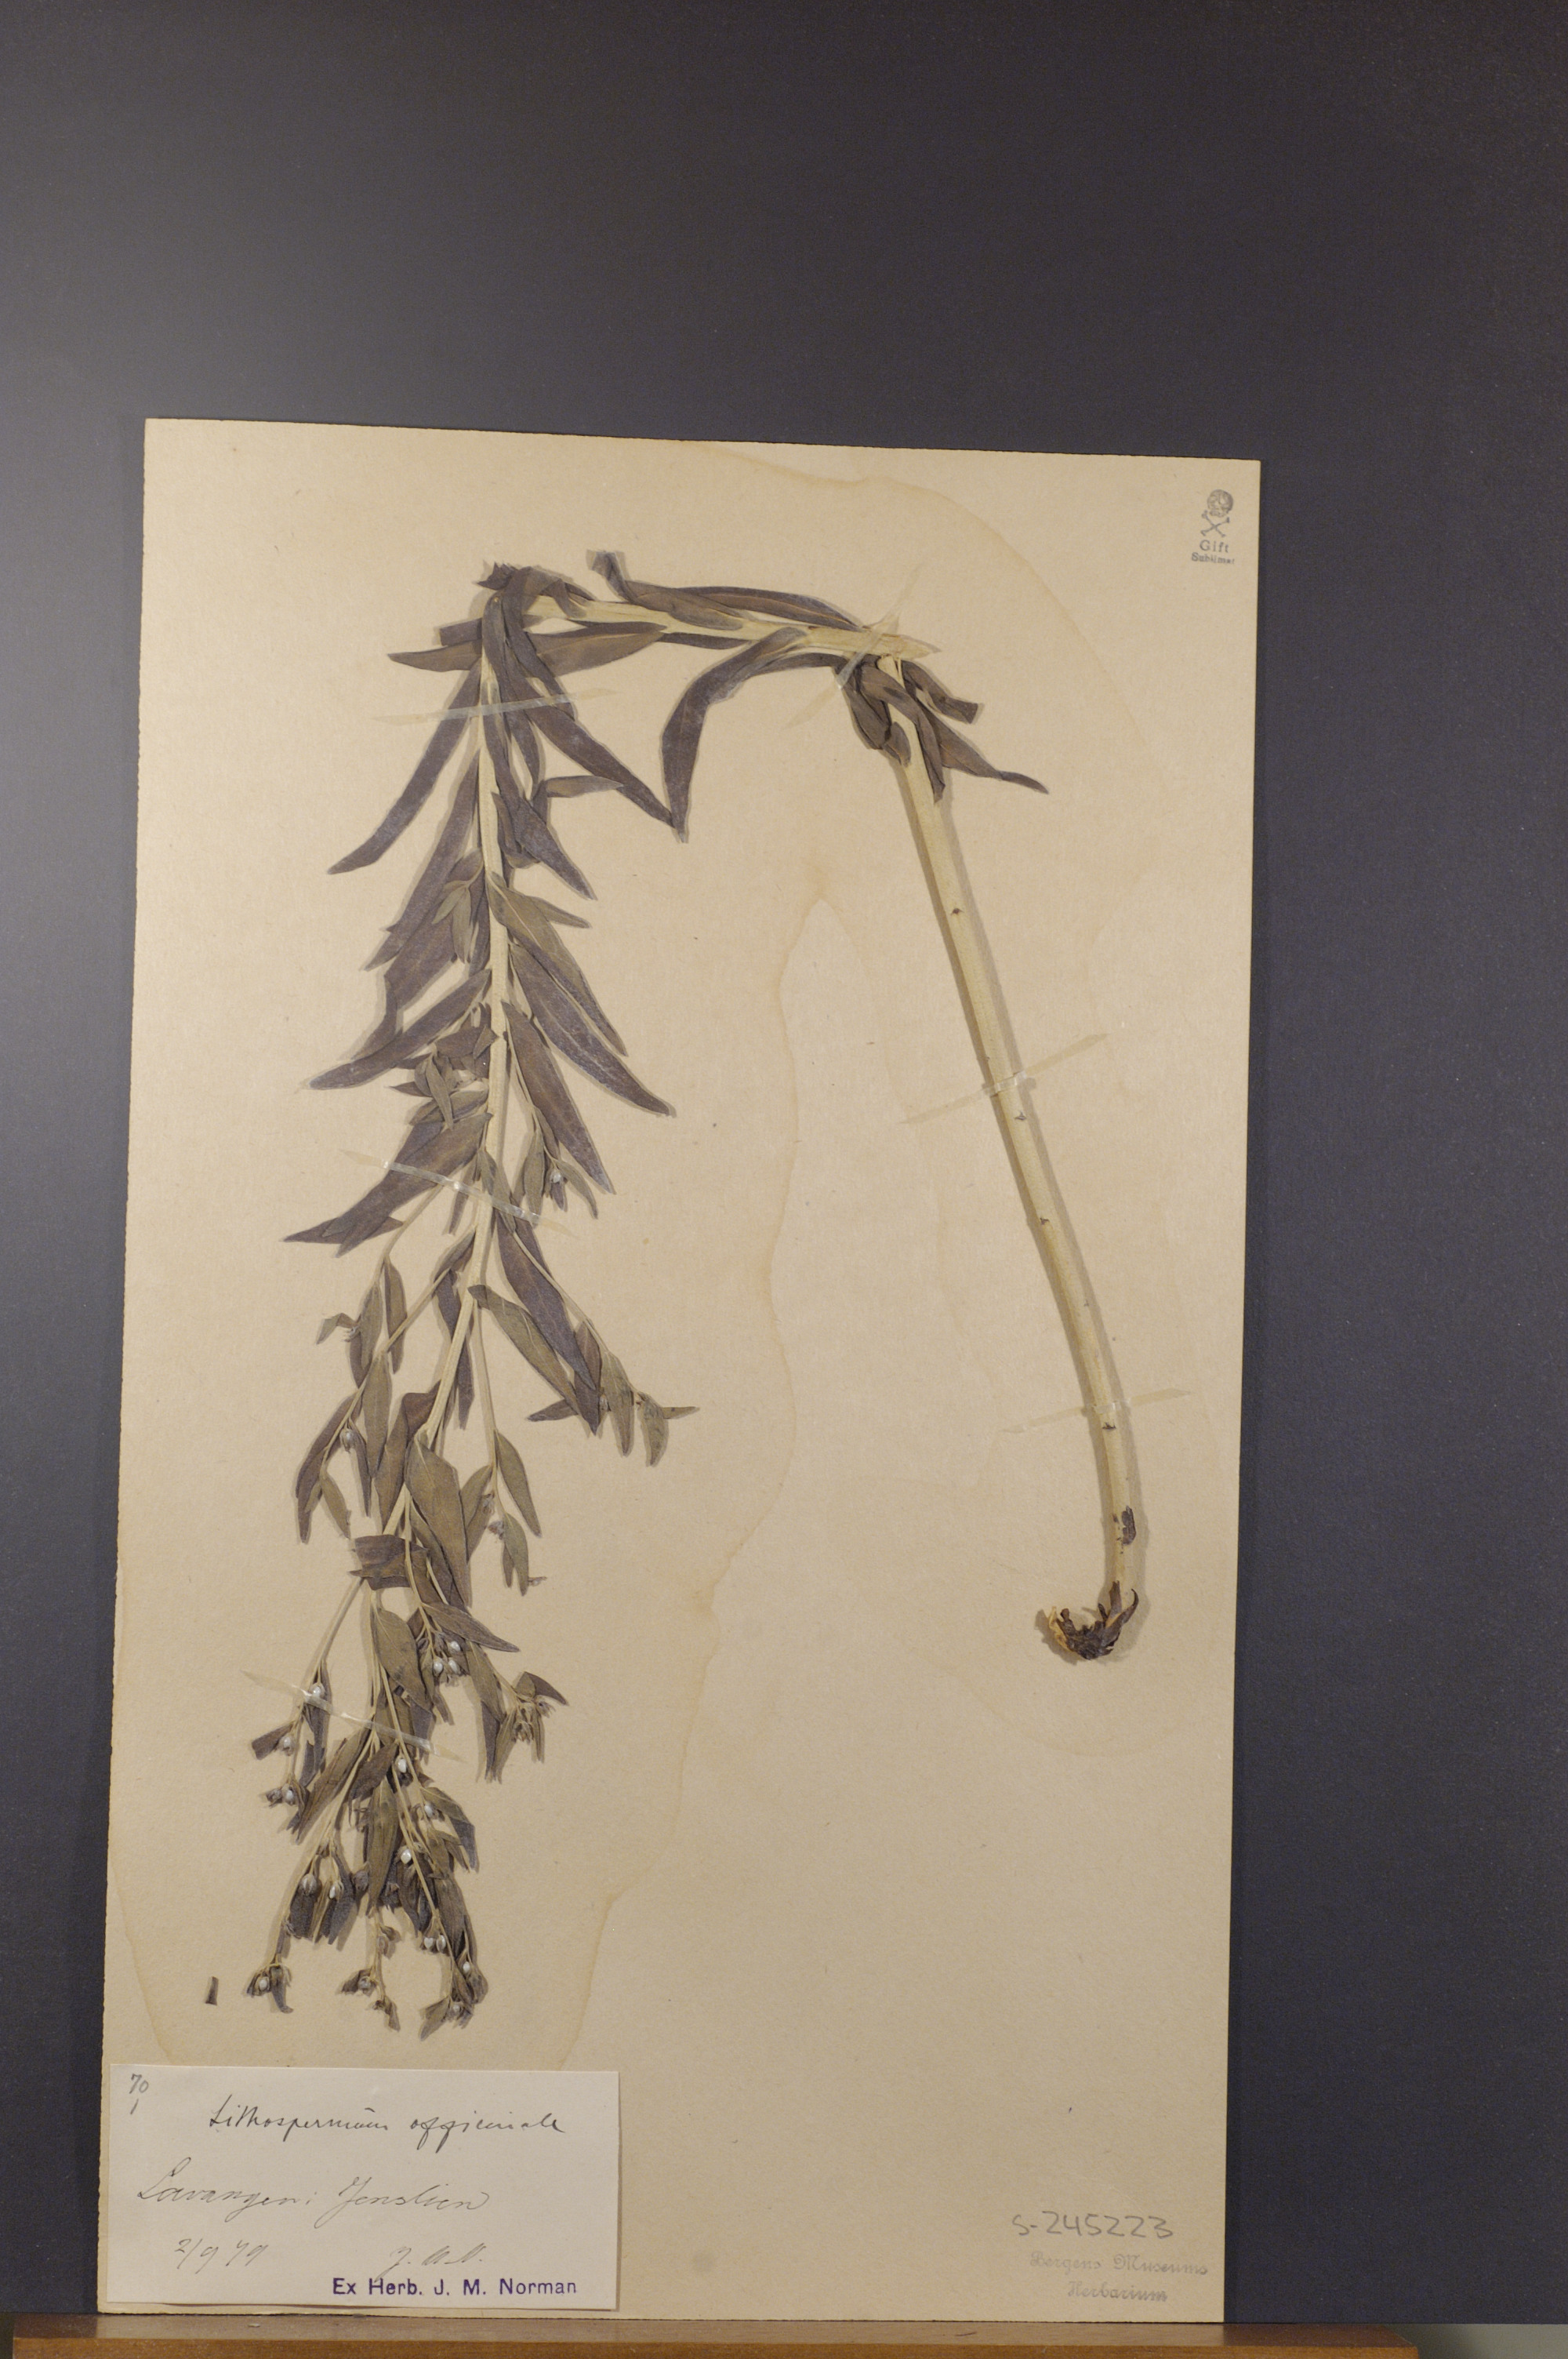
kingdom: Plantae
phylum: Tracheophyta
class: Magnoliopsida
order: Boraginales
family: Boraginaceae
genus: Lithospermum
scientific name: Lithospermum officinale
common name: Common gromwell
